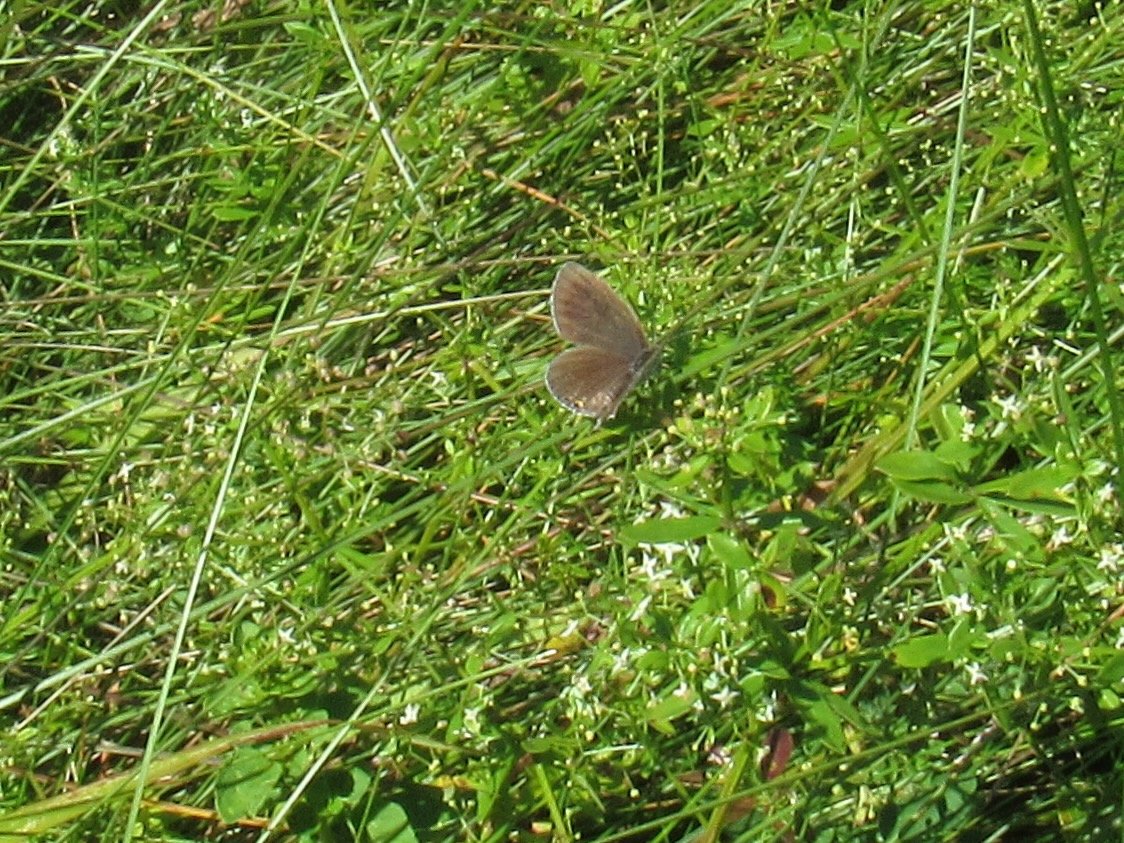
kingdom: Animalia
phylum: Arthropoda
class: Insecta
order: Lepidoptera
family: Lycaenidae
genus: Elkalyce
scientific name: Elkalyce comyntas
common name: Eastern Tailed-Blue
